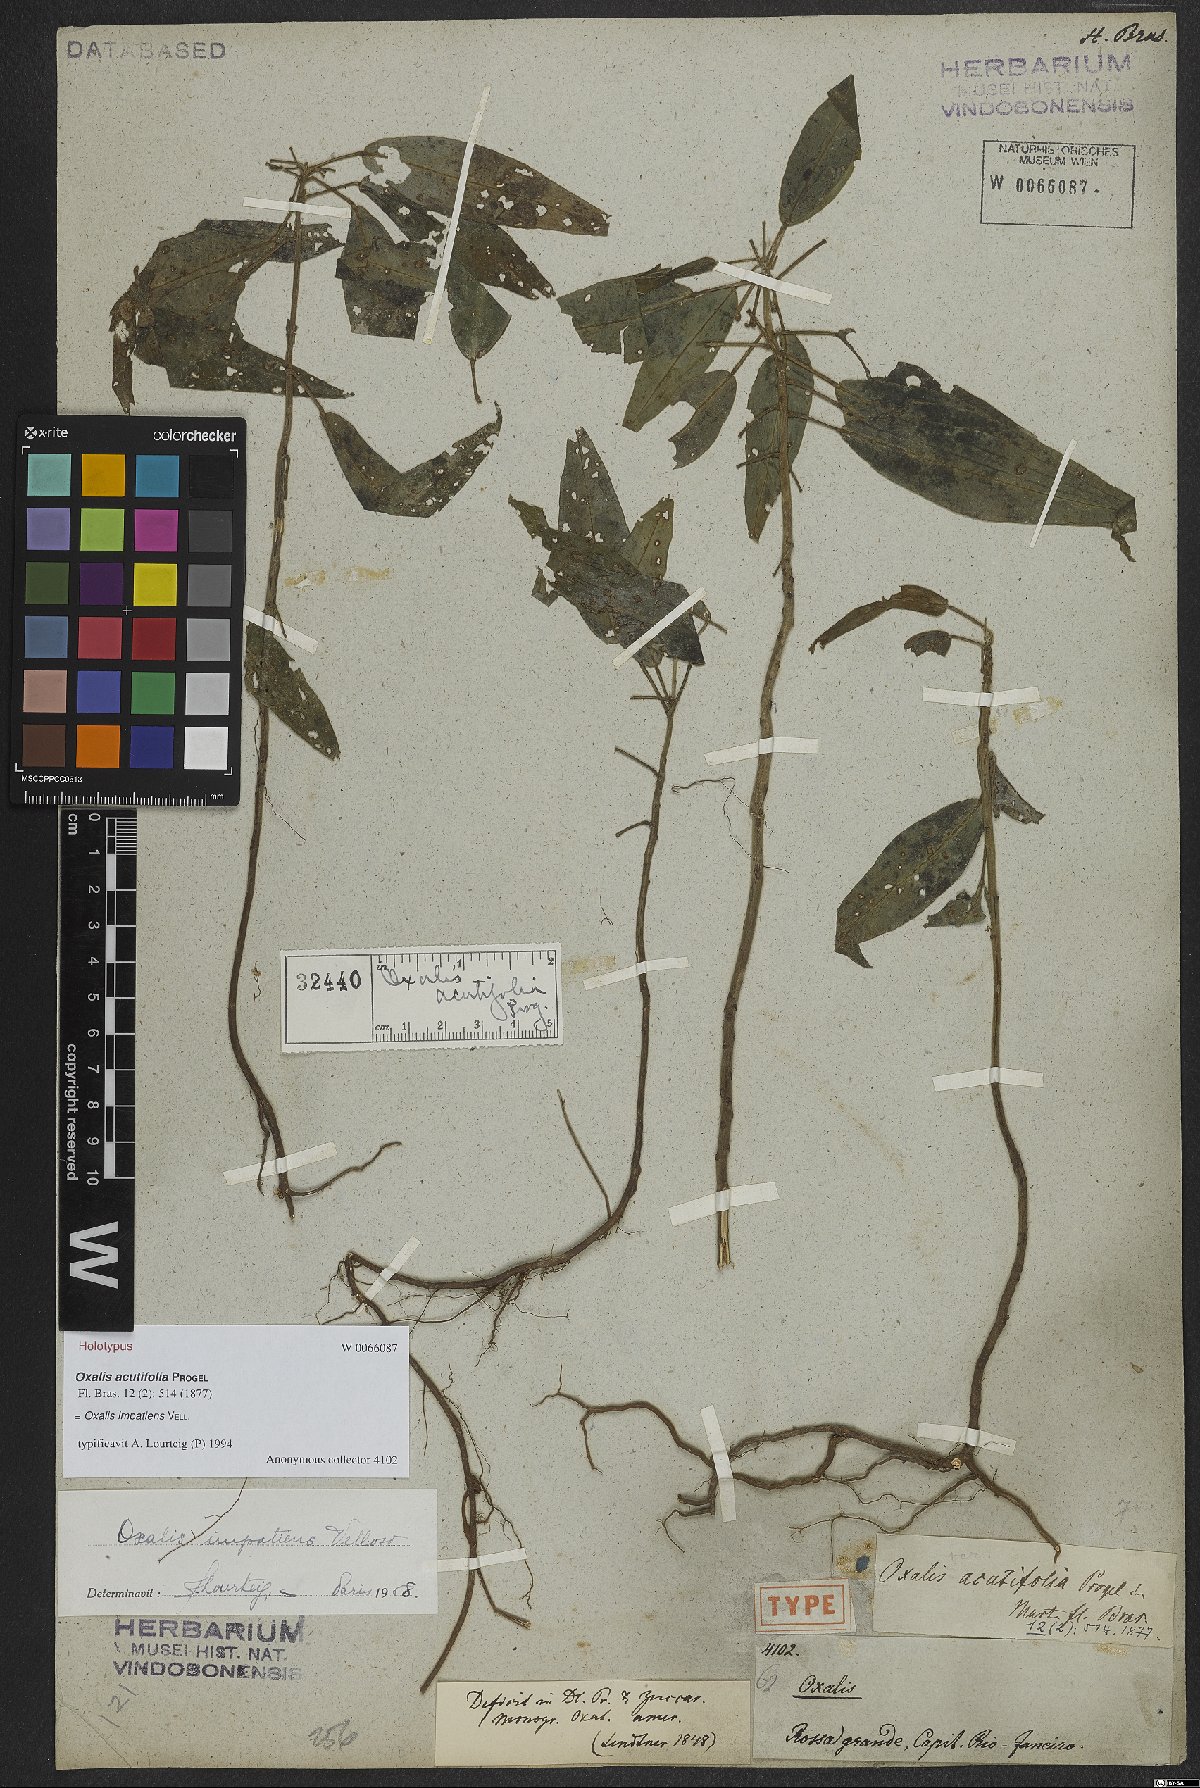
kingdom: Plantae
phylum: Tracheophyta
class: Magnoliopsida
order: Oxalidales
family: Oxalidaceae
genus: Oxalis
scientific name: Oxalis impatiens
